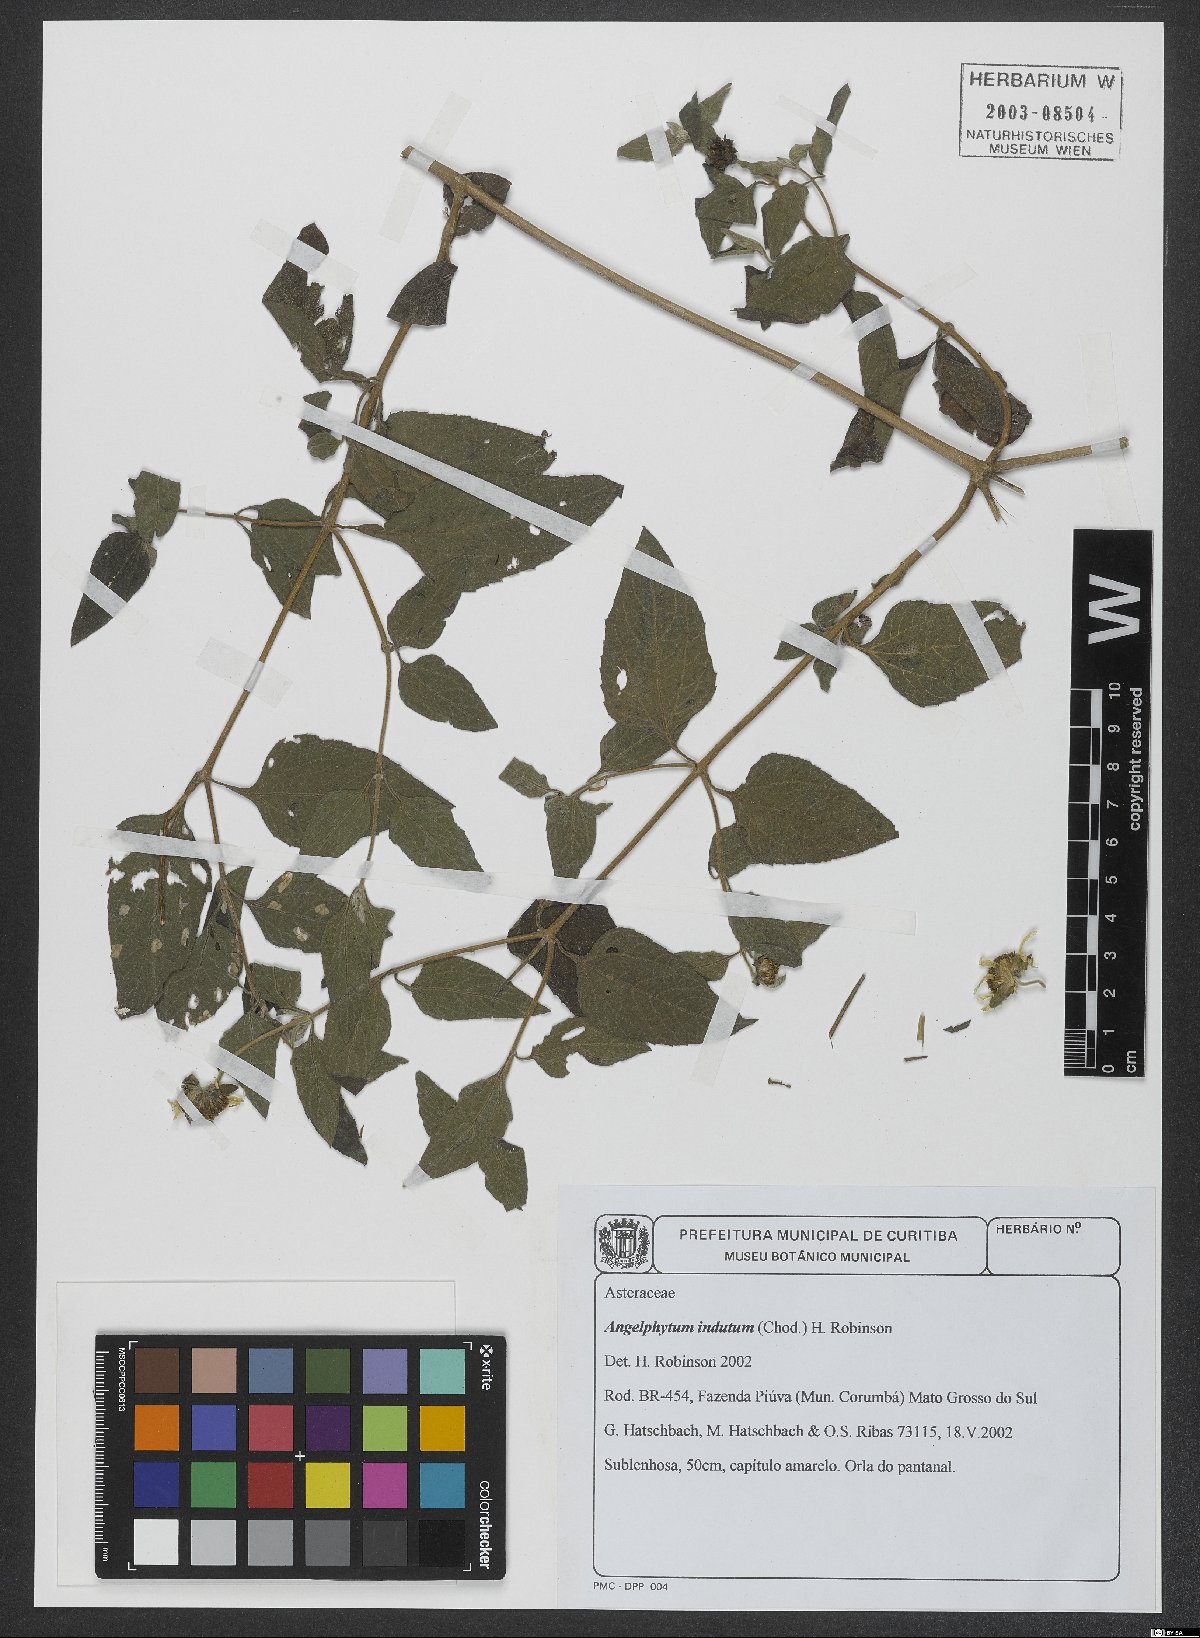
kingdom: Plantae
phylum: Tracheophyta
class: Magnoliopsida
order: Asterales
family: Asteraceae
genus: Dimerostemma
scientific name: Dimerostemma indutum
